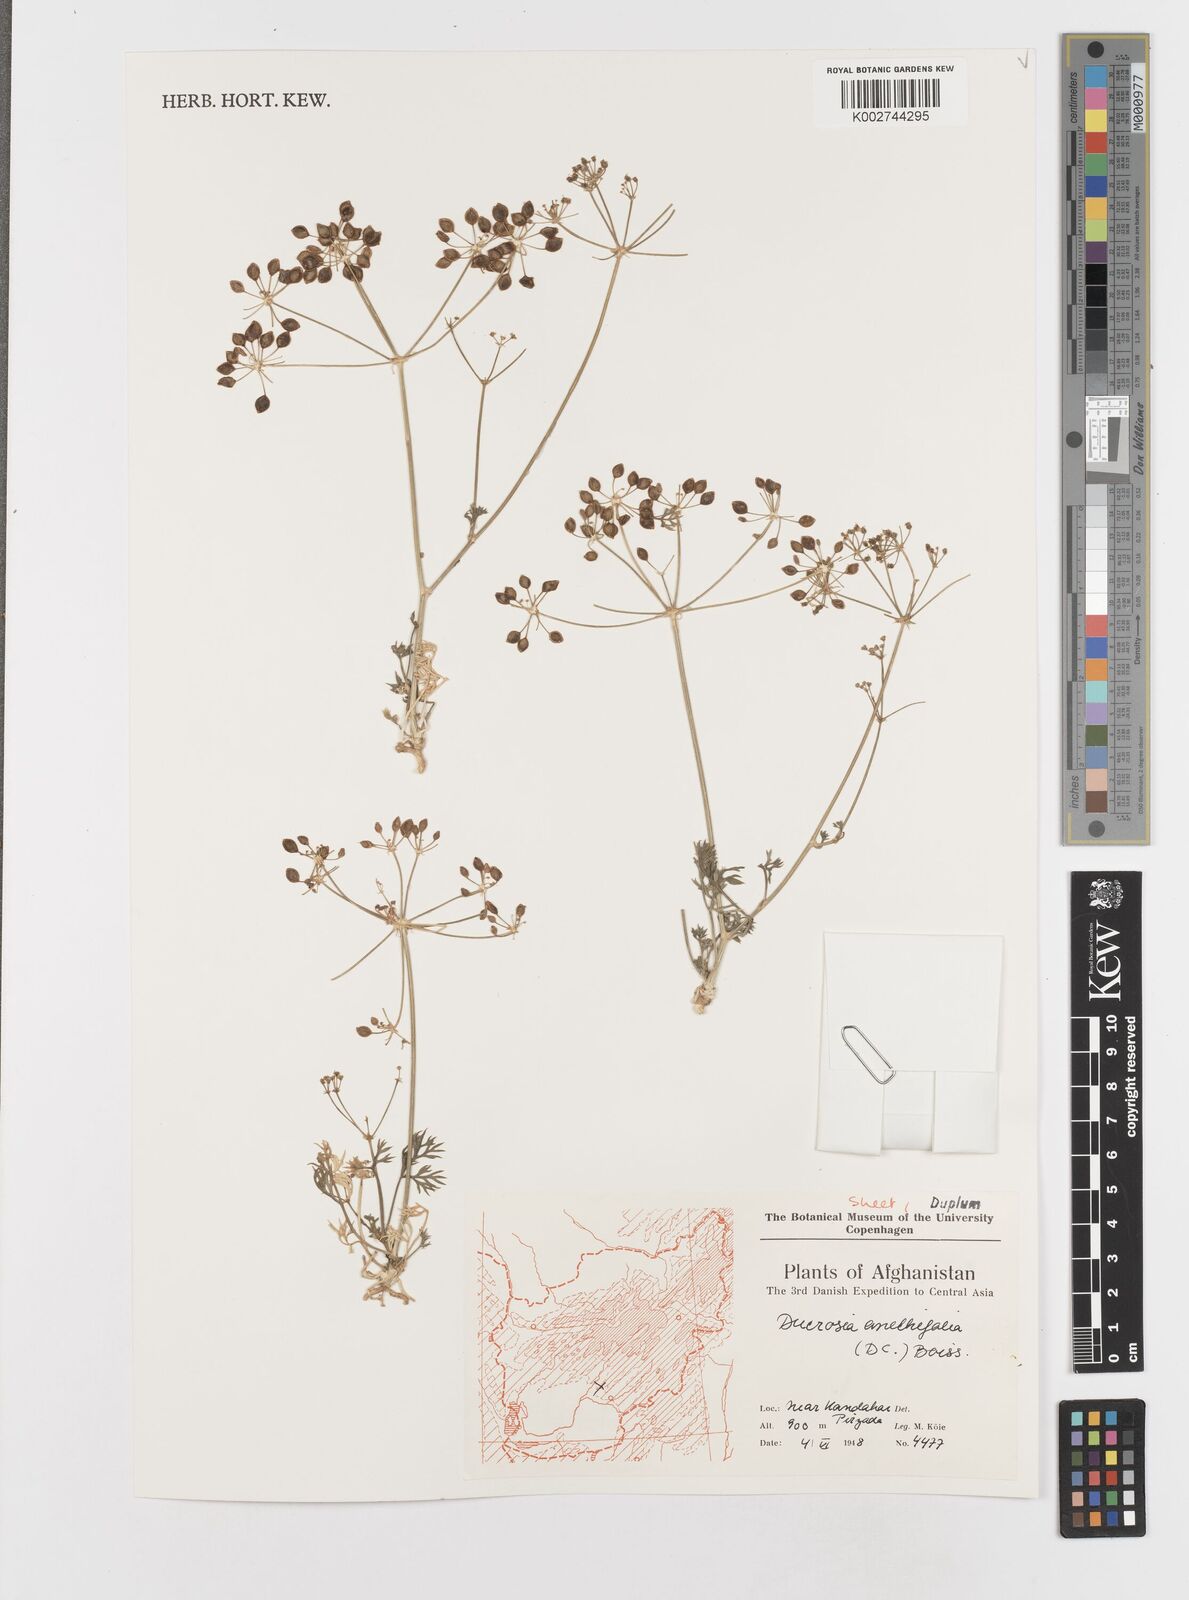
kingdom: Plantae
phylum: Tracheophyta
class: Magnoliopsida
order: Apiales
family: Apiaceae
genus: Ducrosia
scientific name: Ducrosia
